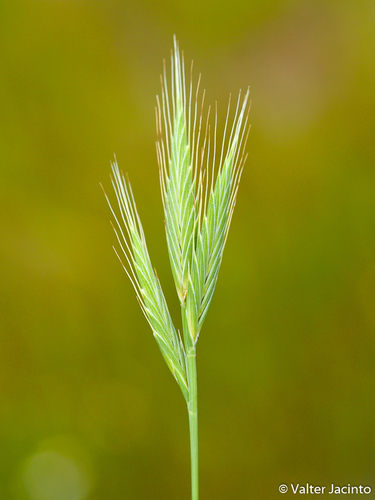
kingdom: Plantae
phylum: Tracheophyta
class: Liliopsida
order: Poales
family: Poaceae
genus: Brachypodium
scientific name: Brachypodium distachyon
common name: Stiff brome
